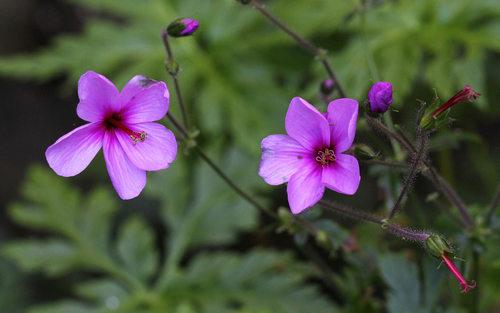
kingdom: Plantae
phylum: Tracheophyta
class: Magnoliopsida
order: Geraniales
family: Geraniaceae
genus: Geranium
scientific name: Geranium palmatum
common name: Canary island geranium
